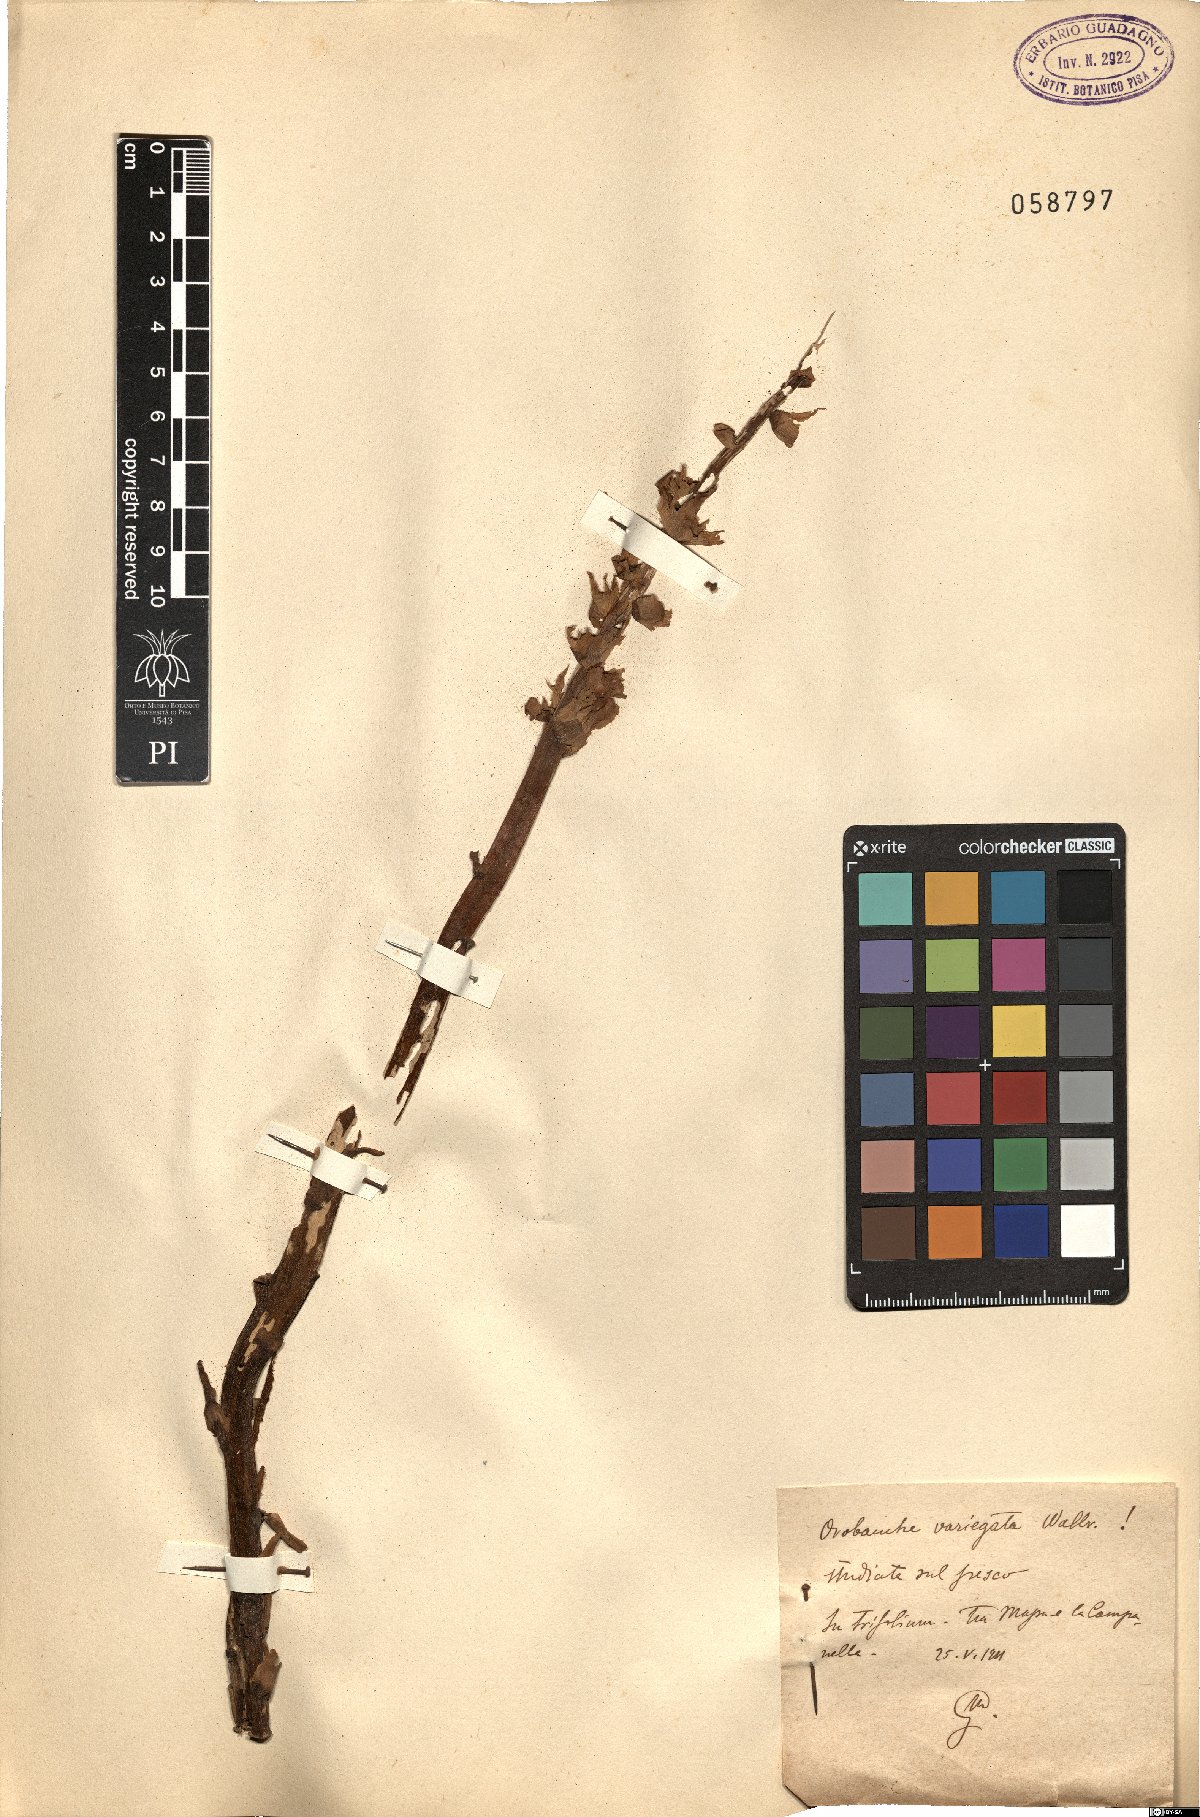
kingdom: Plantae
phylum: Tracheophyta
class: Magnoliopsida
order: Lamiales
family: Orobanchaceae
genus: Orobanche
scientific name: Orobanche variegata
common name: Variegated broomrape
